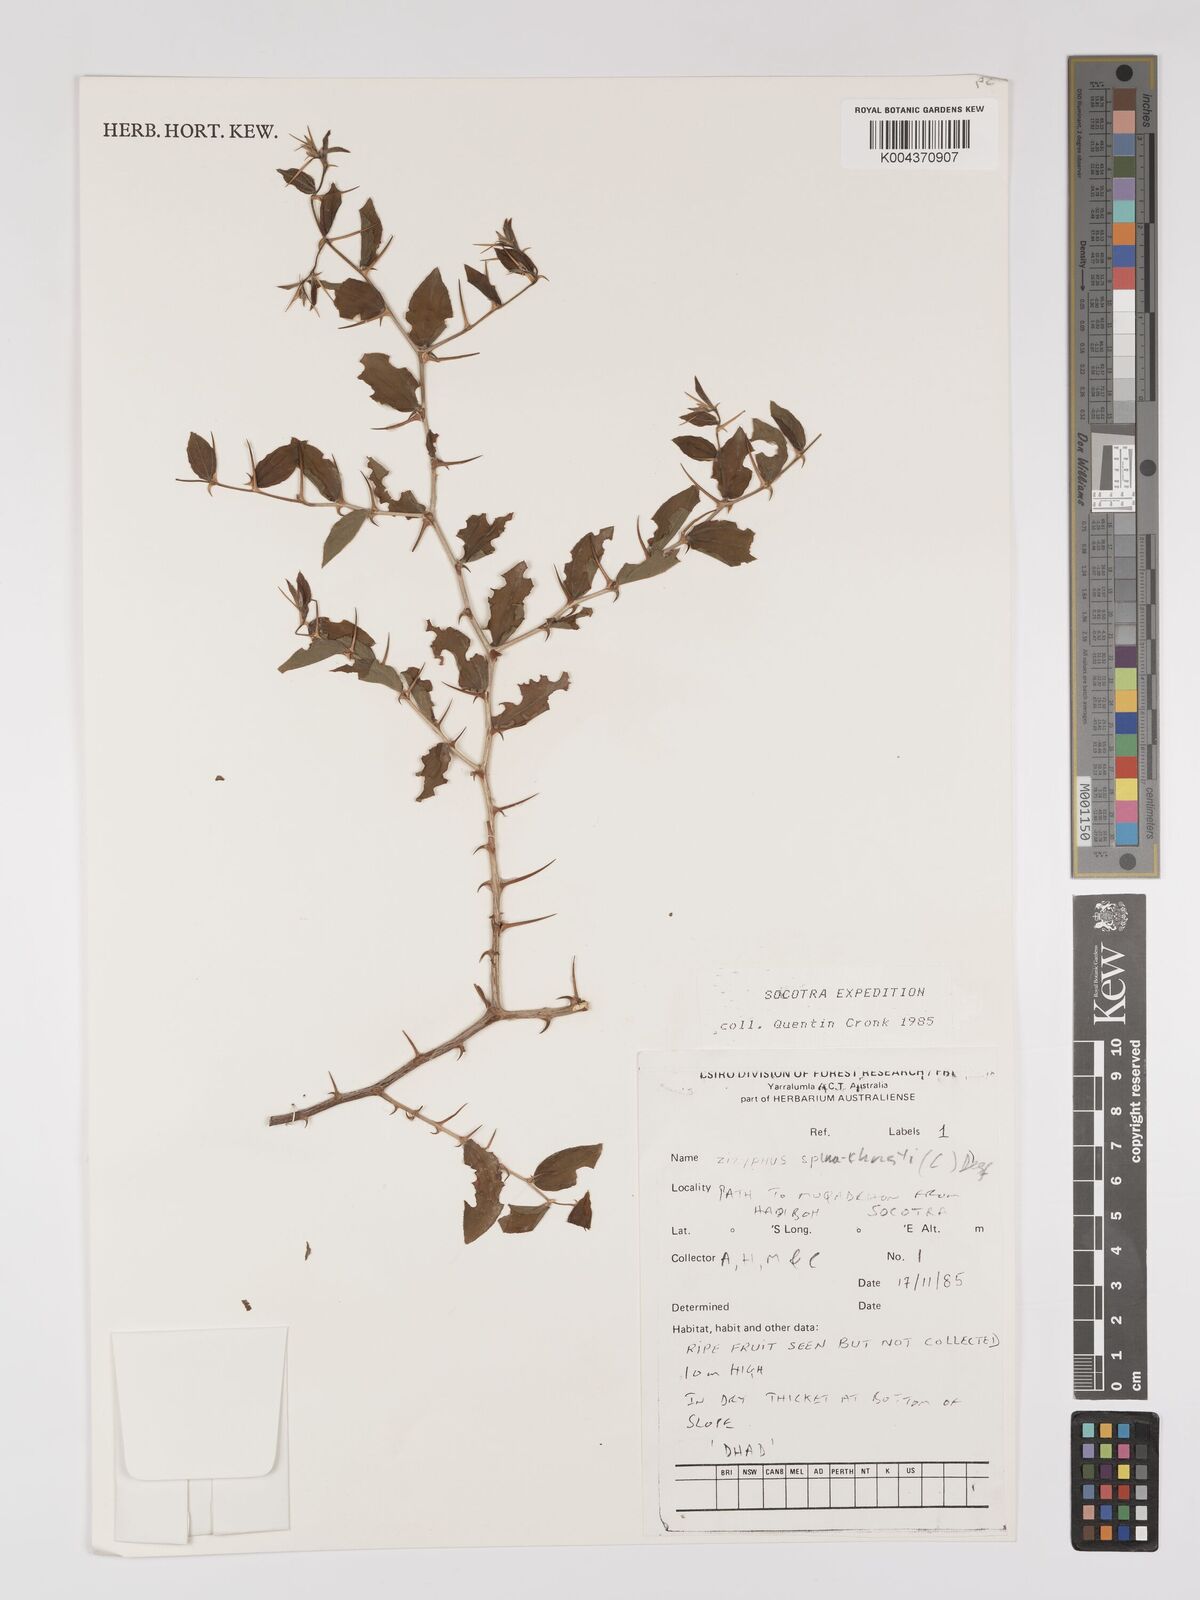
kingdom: Plantae
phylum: Tracheophyta
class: Magnoliopsida
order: Rosales
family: Rhamnaceae
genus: Ziziphus
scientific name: Ziziphus spina-christi
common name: Syrian christ-thorn
